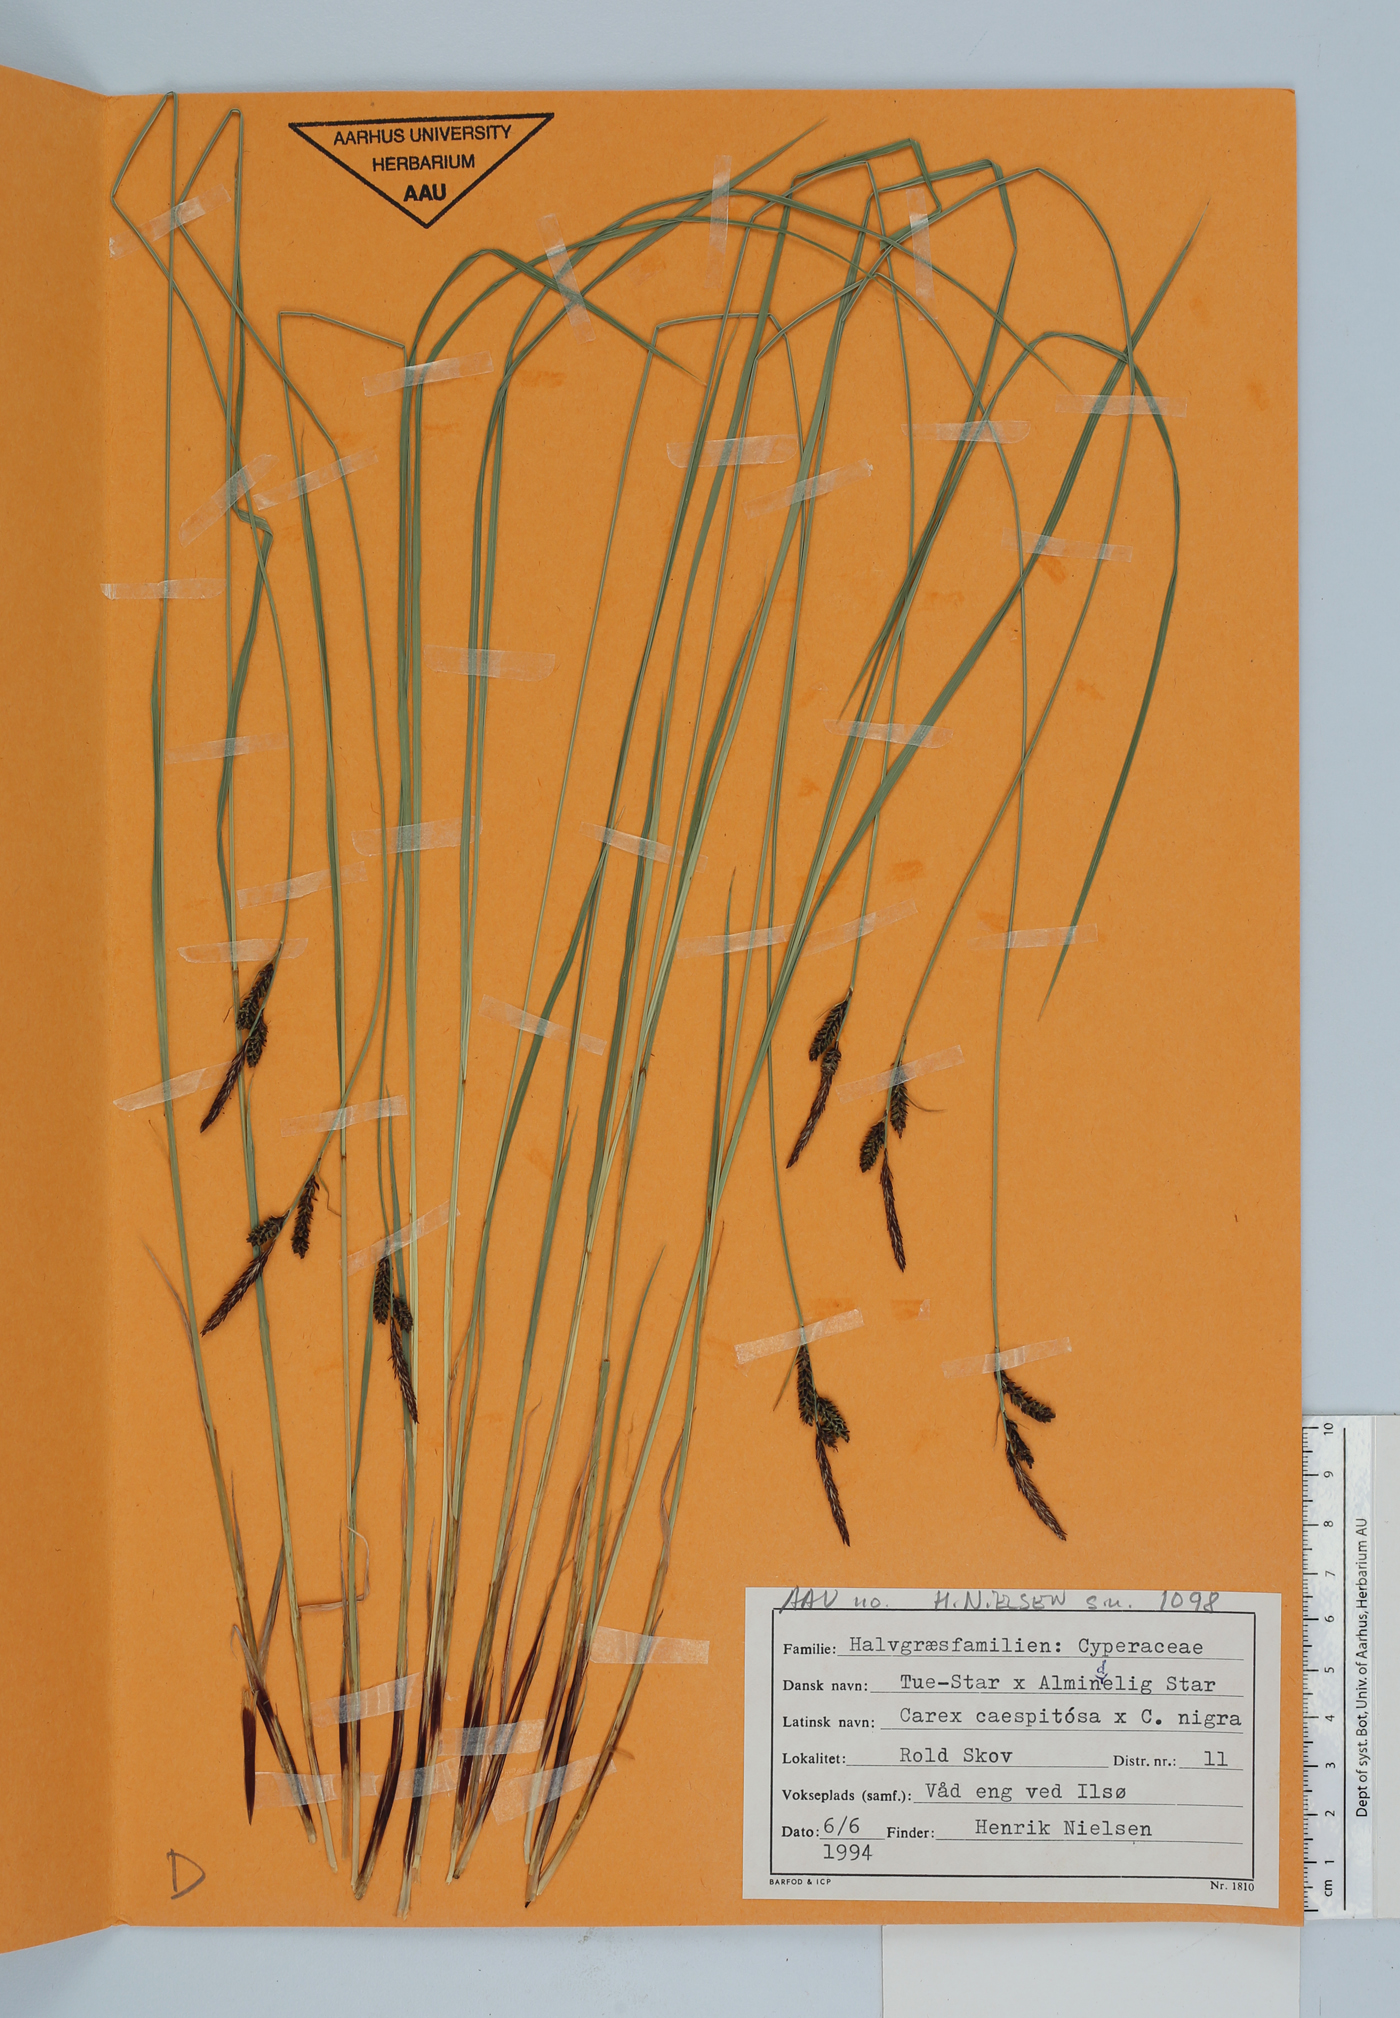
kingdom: Plantae
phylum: Tracheophyta
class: Liliopsida
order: Poales
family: Cyperaceae
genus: Carex
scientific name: Carex
